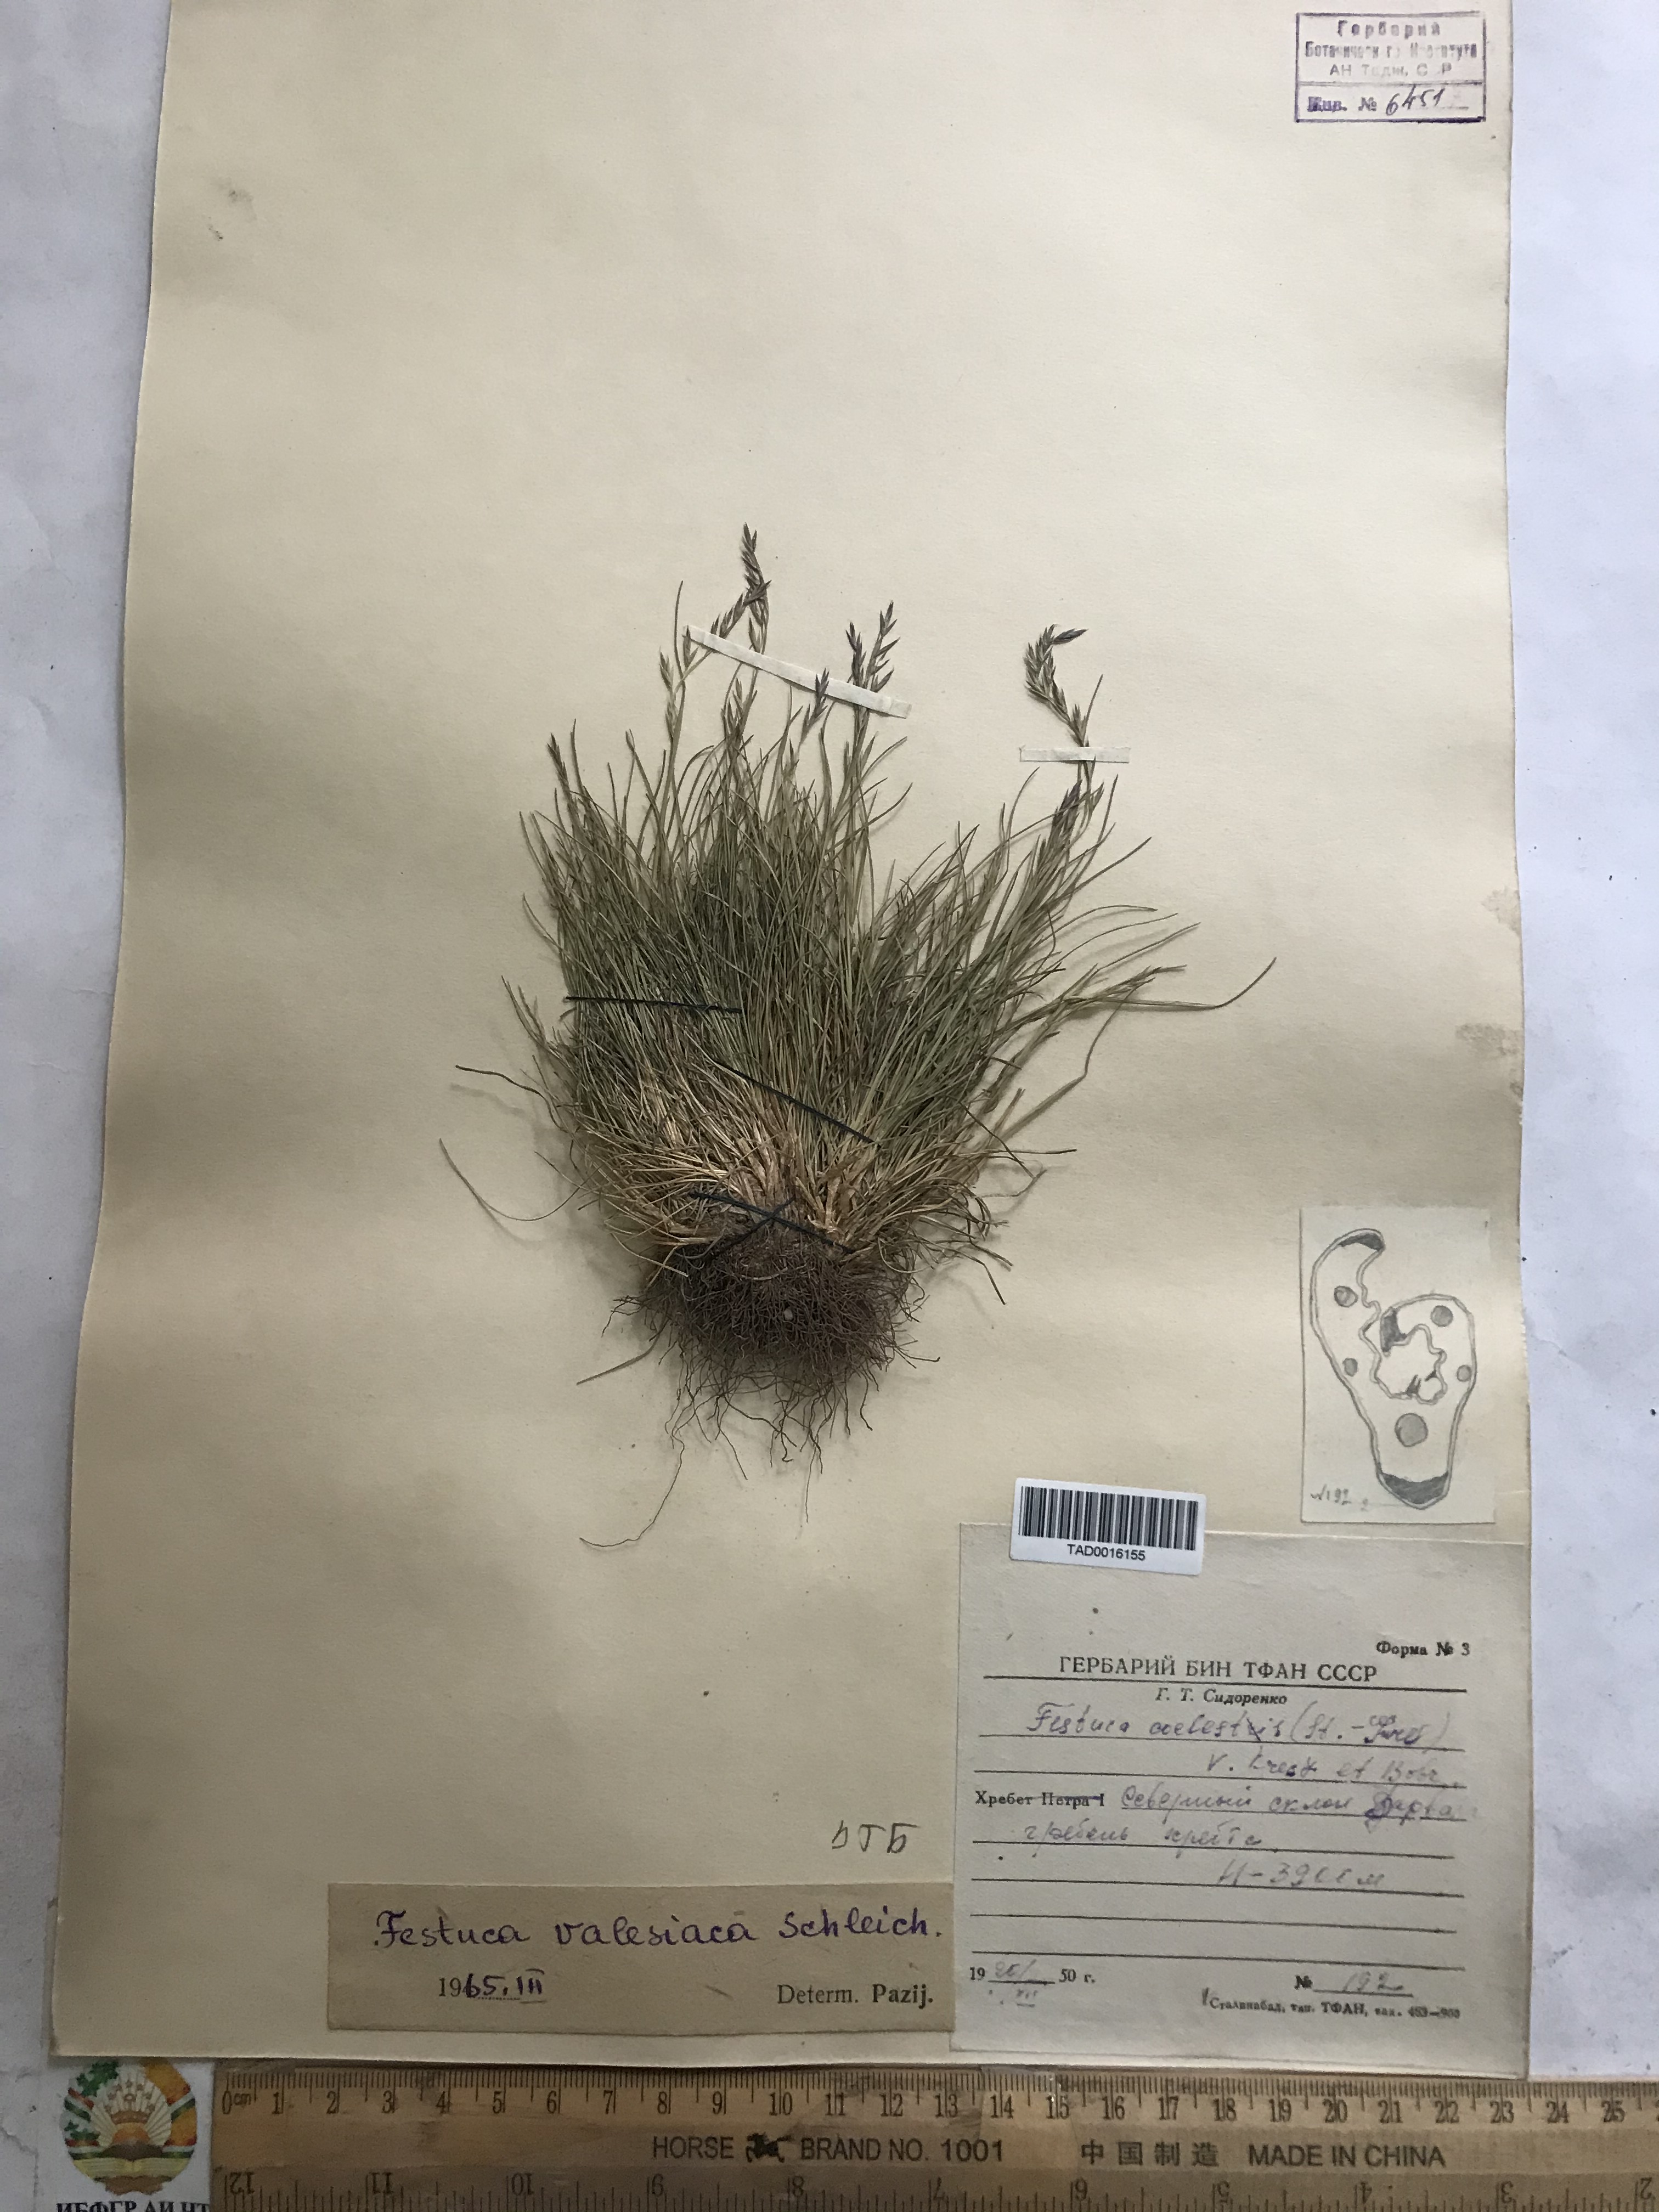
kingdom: Plantae
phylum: Tracheophyta
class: Liliopsida
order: Poales
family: Poaceae
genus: Festuca
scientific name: Festuca valesiaca
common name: Volga fescue
